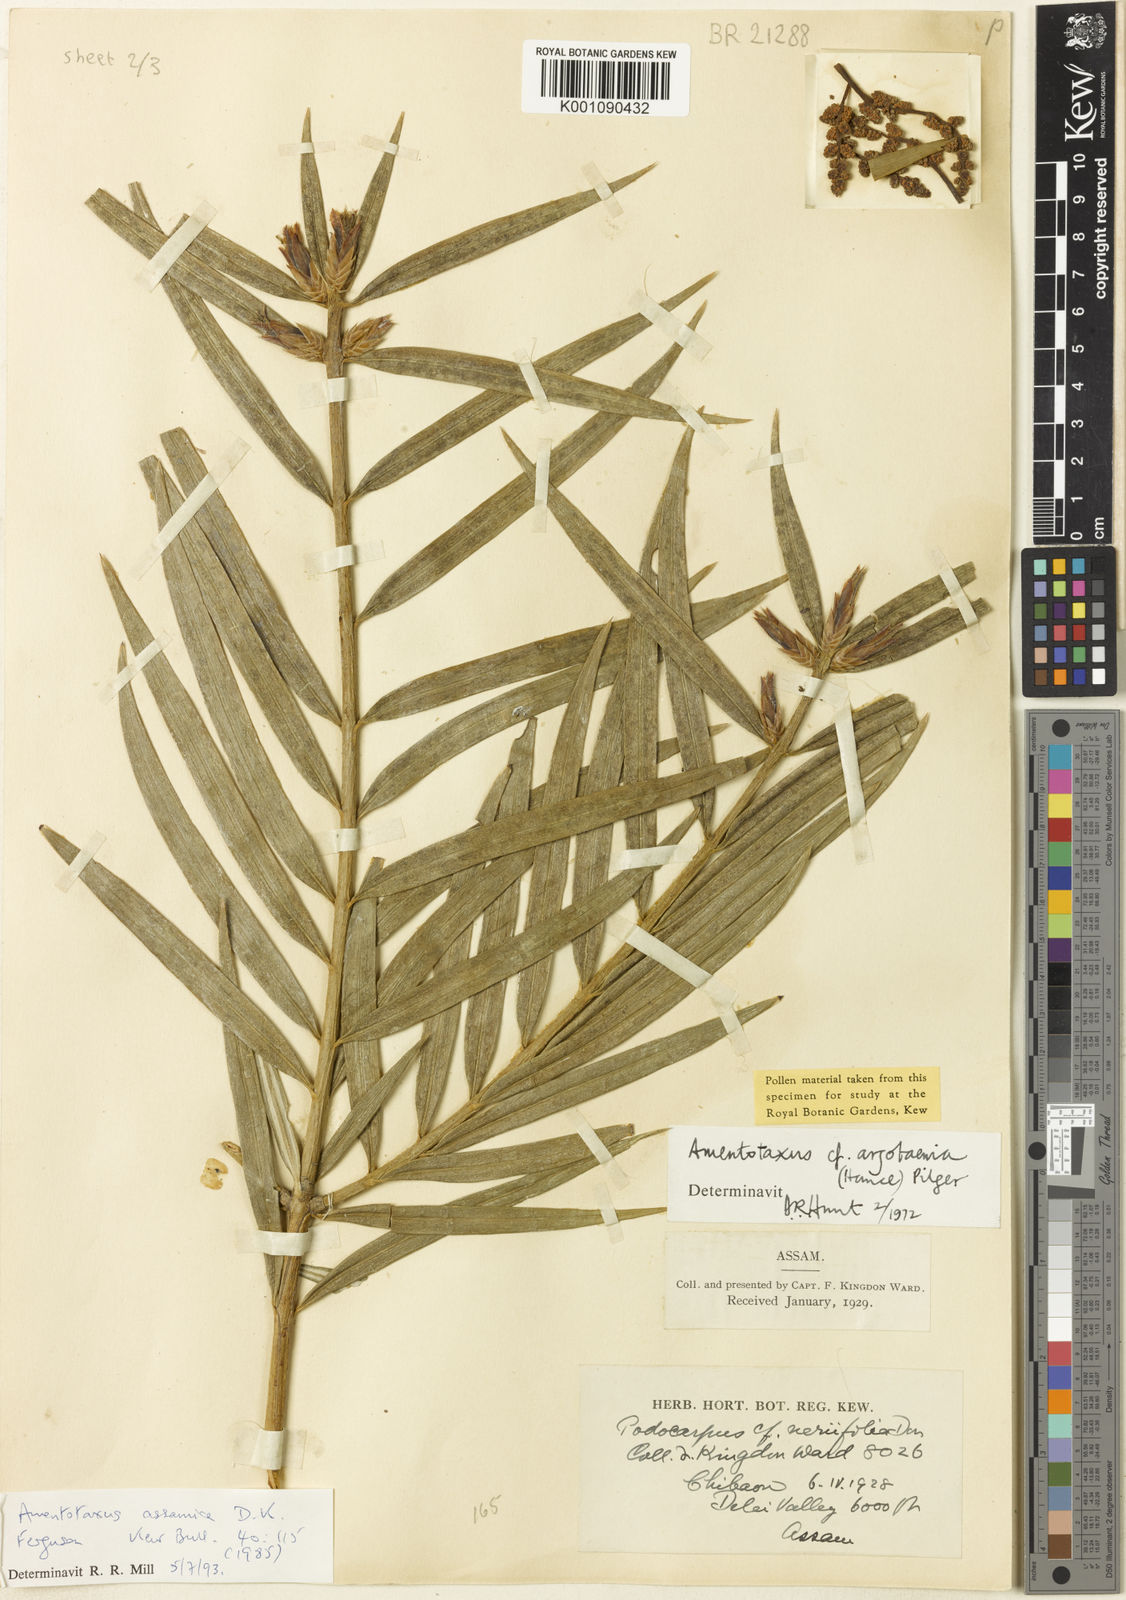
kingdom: Plantae
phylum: Tracheophyta
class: Pinopsida
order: Pinales
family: Taxaceae
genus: Amentotaxus
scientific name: Amentotaxus assamica
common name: Assam catkin yew
